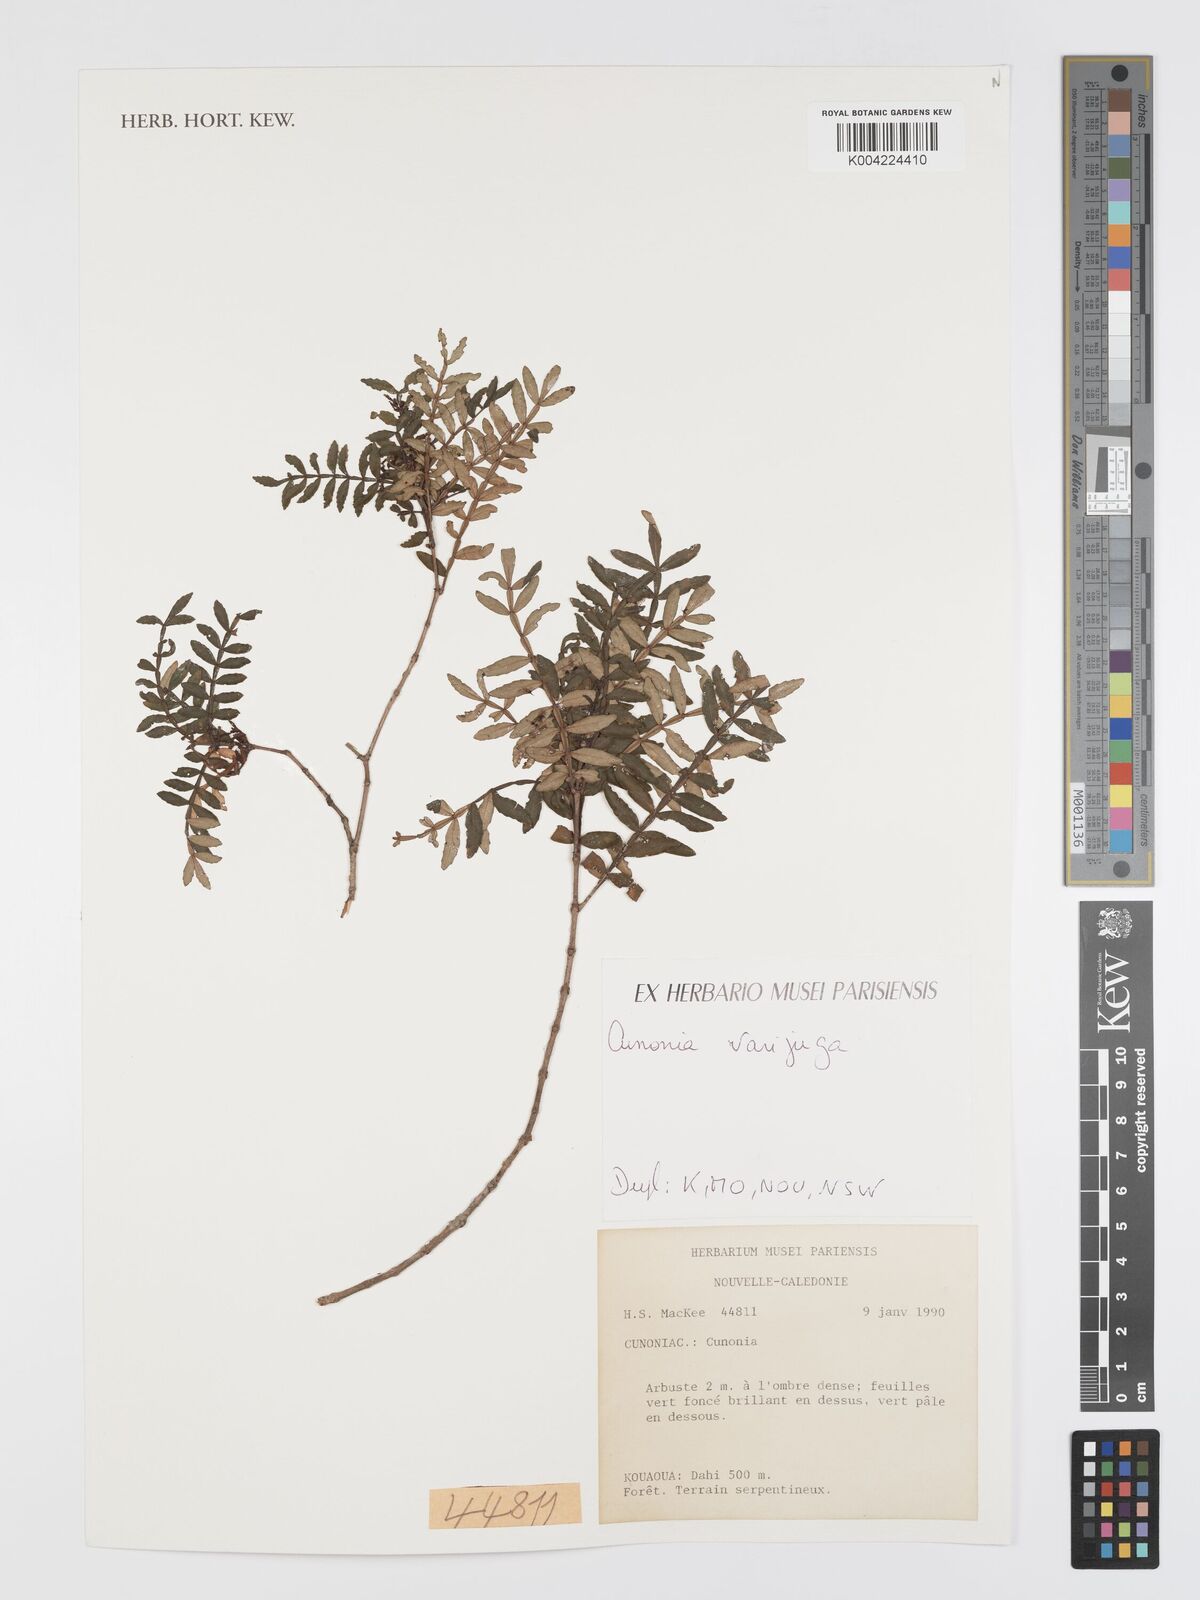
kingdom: Plantae
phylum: Tracheophyta
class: Magnoliopsida
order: Oxalidales
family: Cunoniaceae
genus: Cunonia
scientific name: Cunonia varijuga
